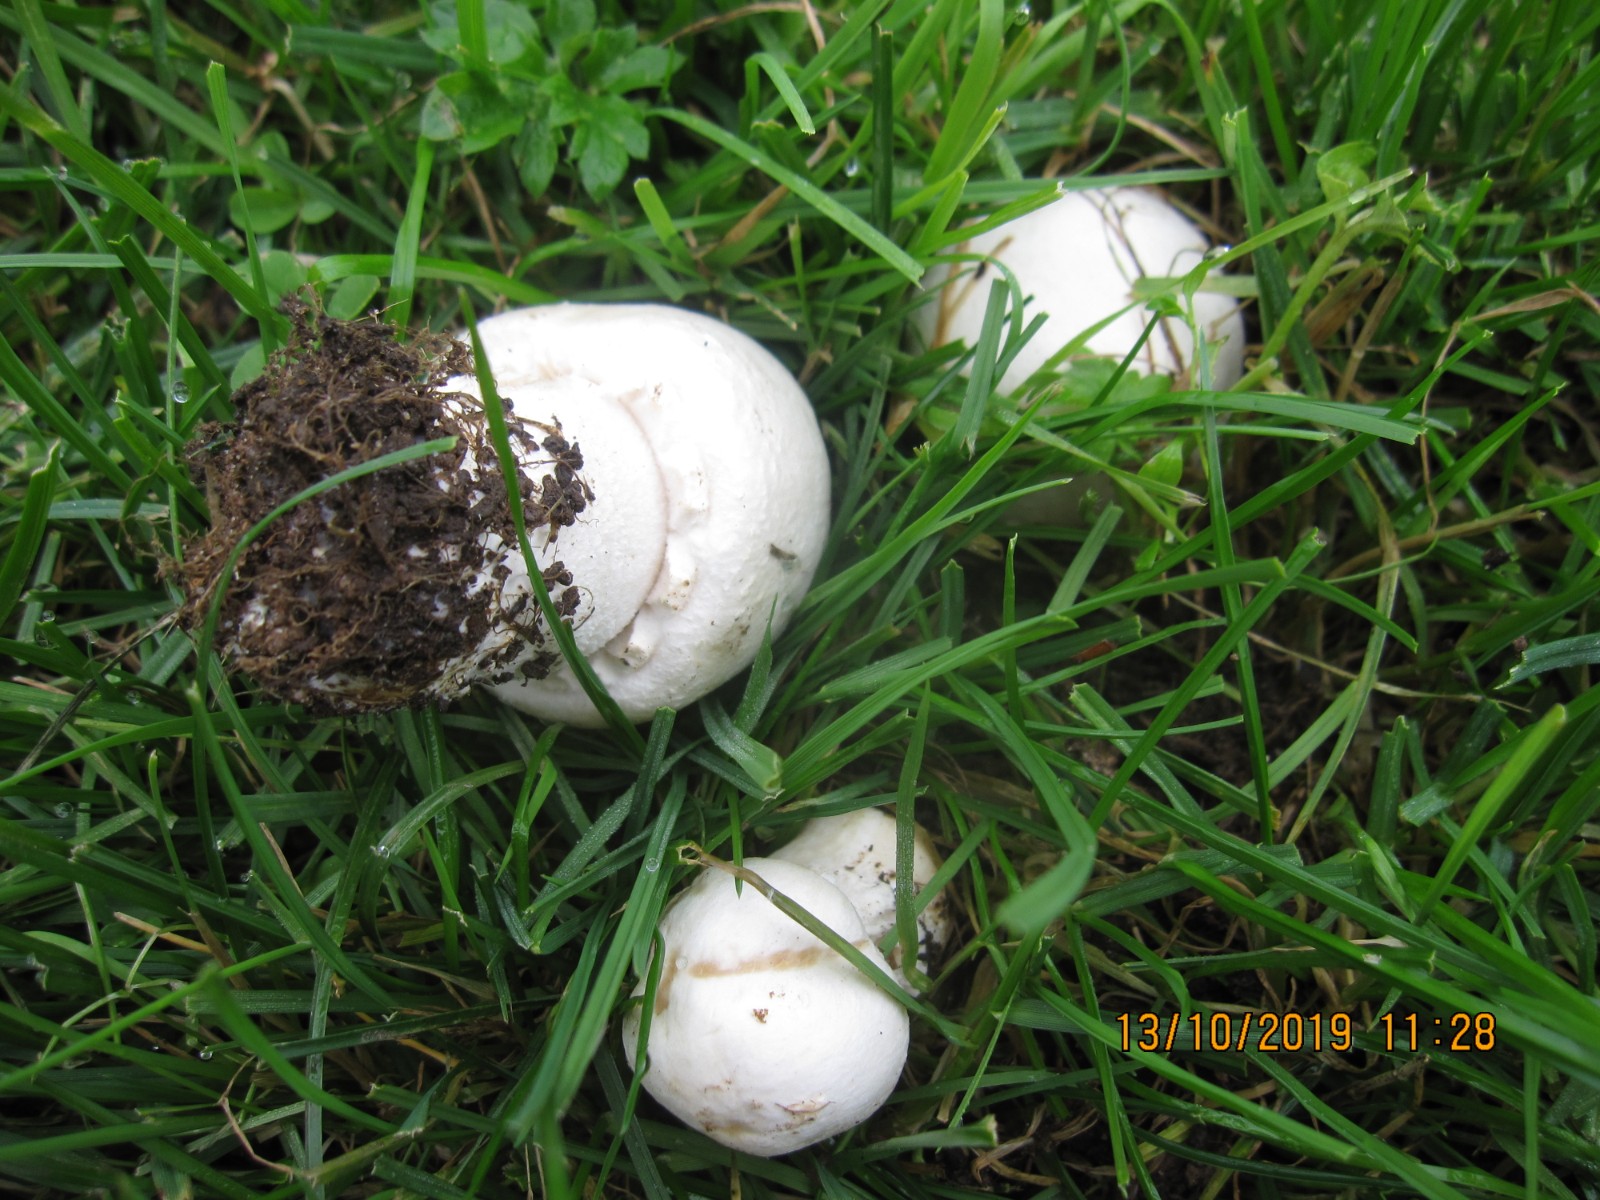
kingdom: Fungi
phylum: Basidiomycota
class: Agaricomycetes
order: Agaricales
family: Agaricaceae
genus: Agaricus
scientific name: Agaricus arvensis
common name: ager-champignon
